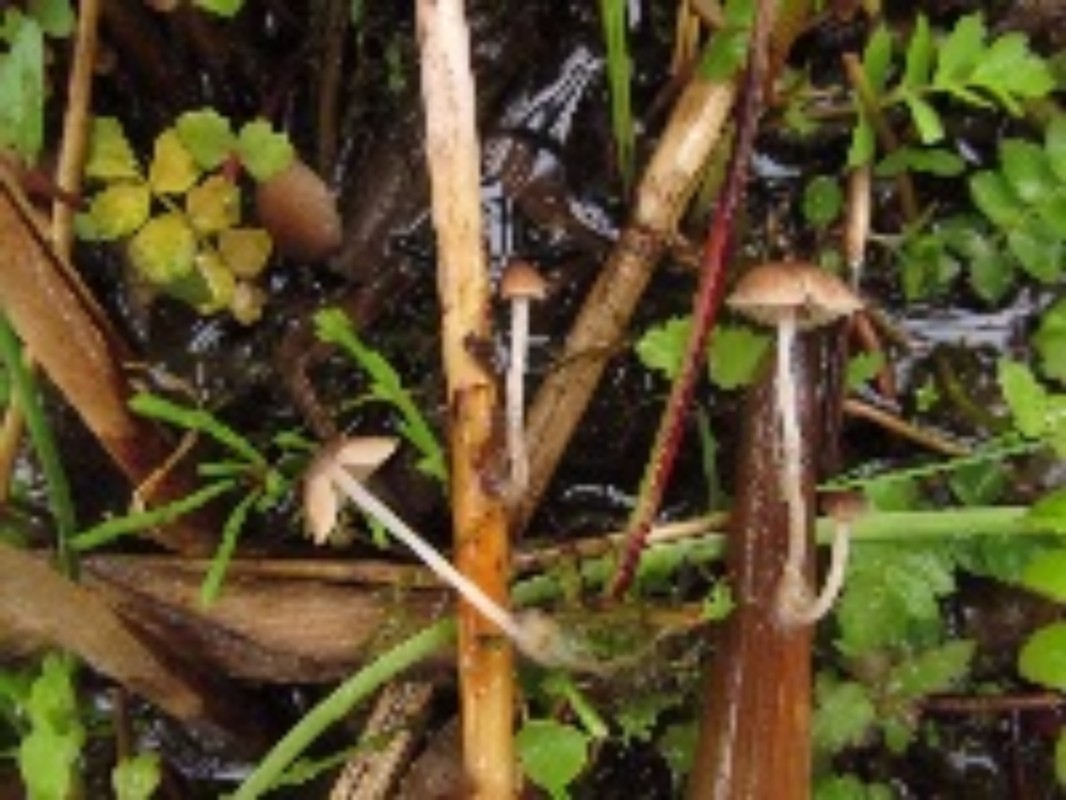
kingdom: Fungi
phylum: Basidiomycota
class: Agaricomycetes
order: Agaricales
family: Psathyrellaceae
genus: Candolleomyces
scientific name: Candolleomyces typhae
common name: dunhammer-mørkhat
